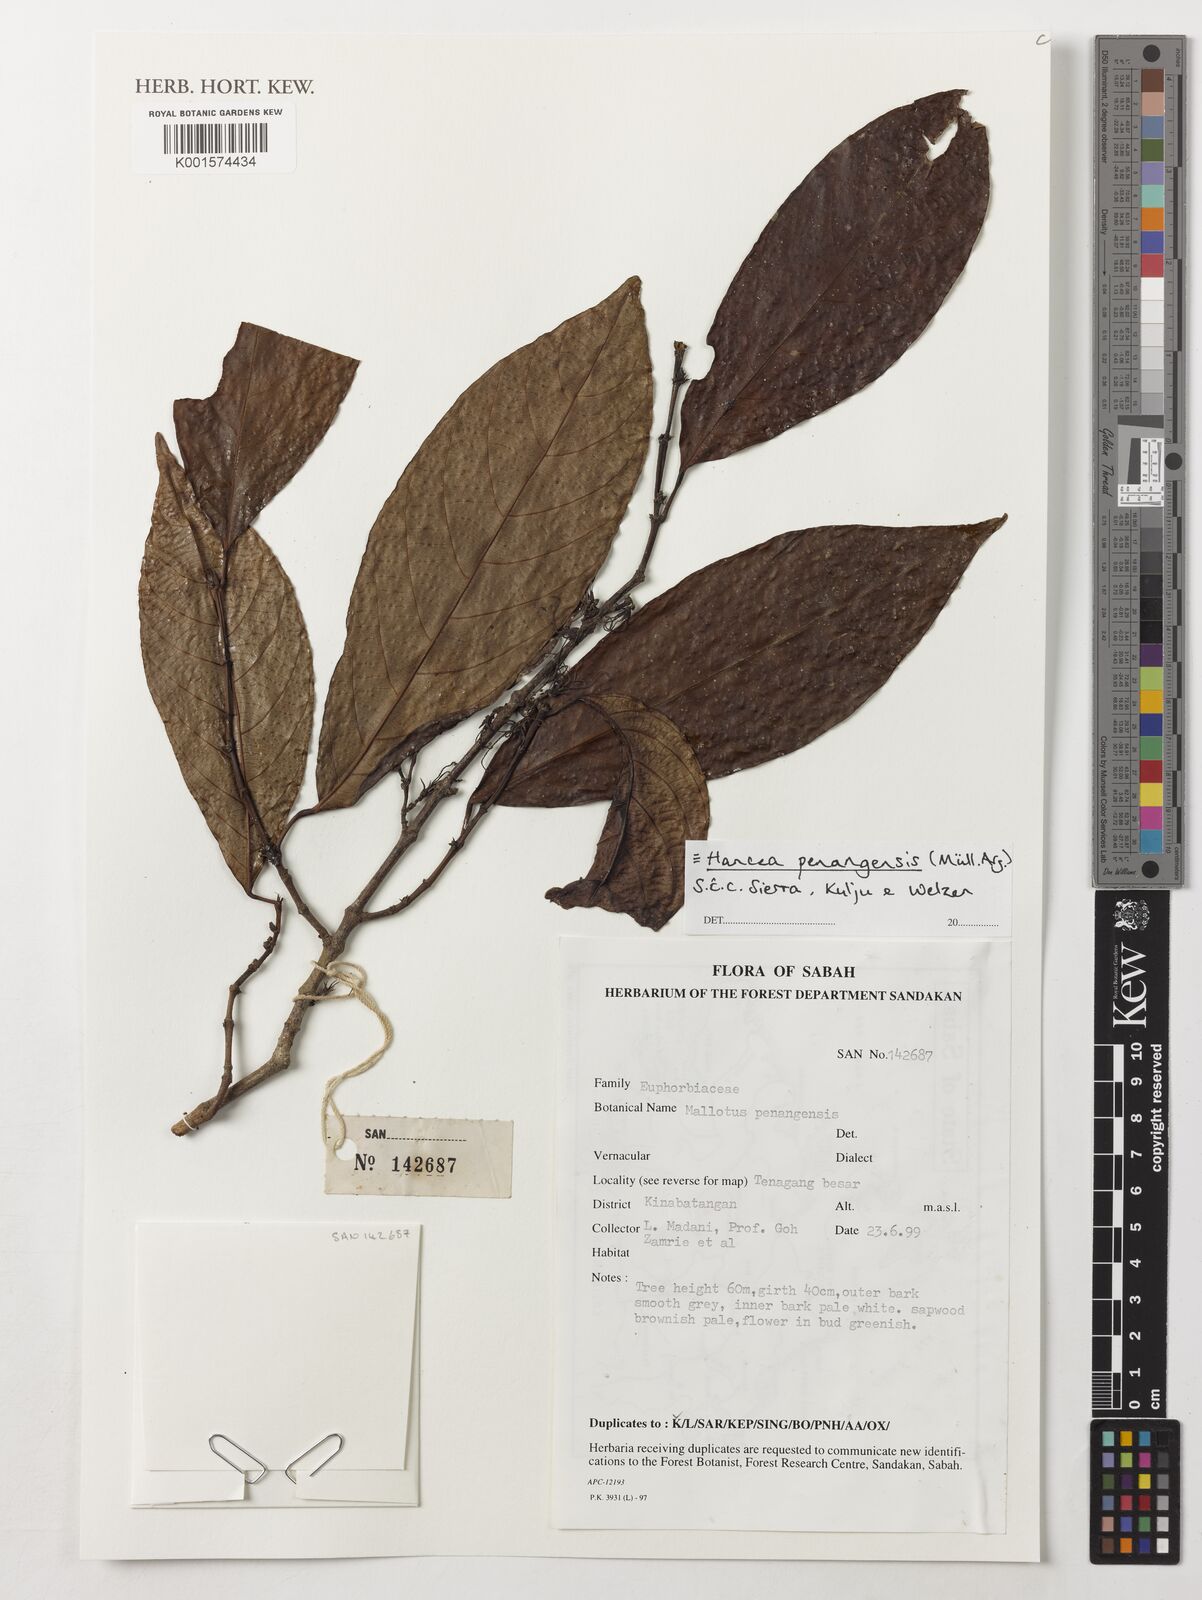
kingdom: Plantae
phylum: Tracheophyta
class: Magnoliopsida
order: Malpighiales
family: Euphorbiaceae
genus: Hancea
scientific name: Hancea penangensis
